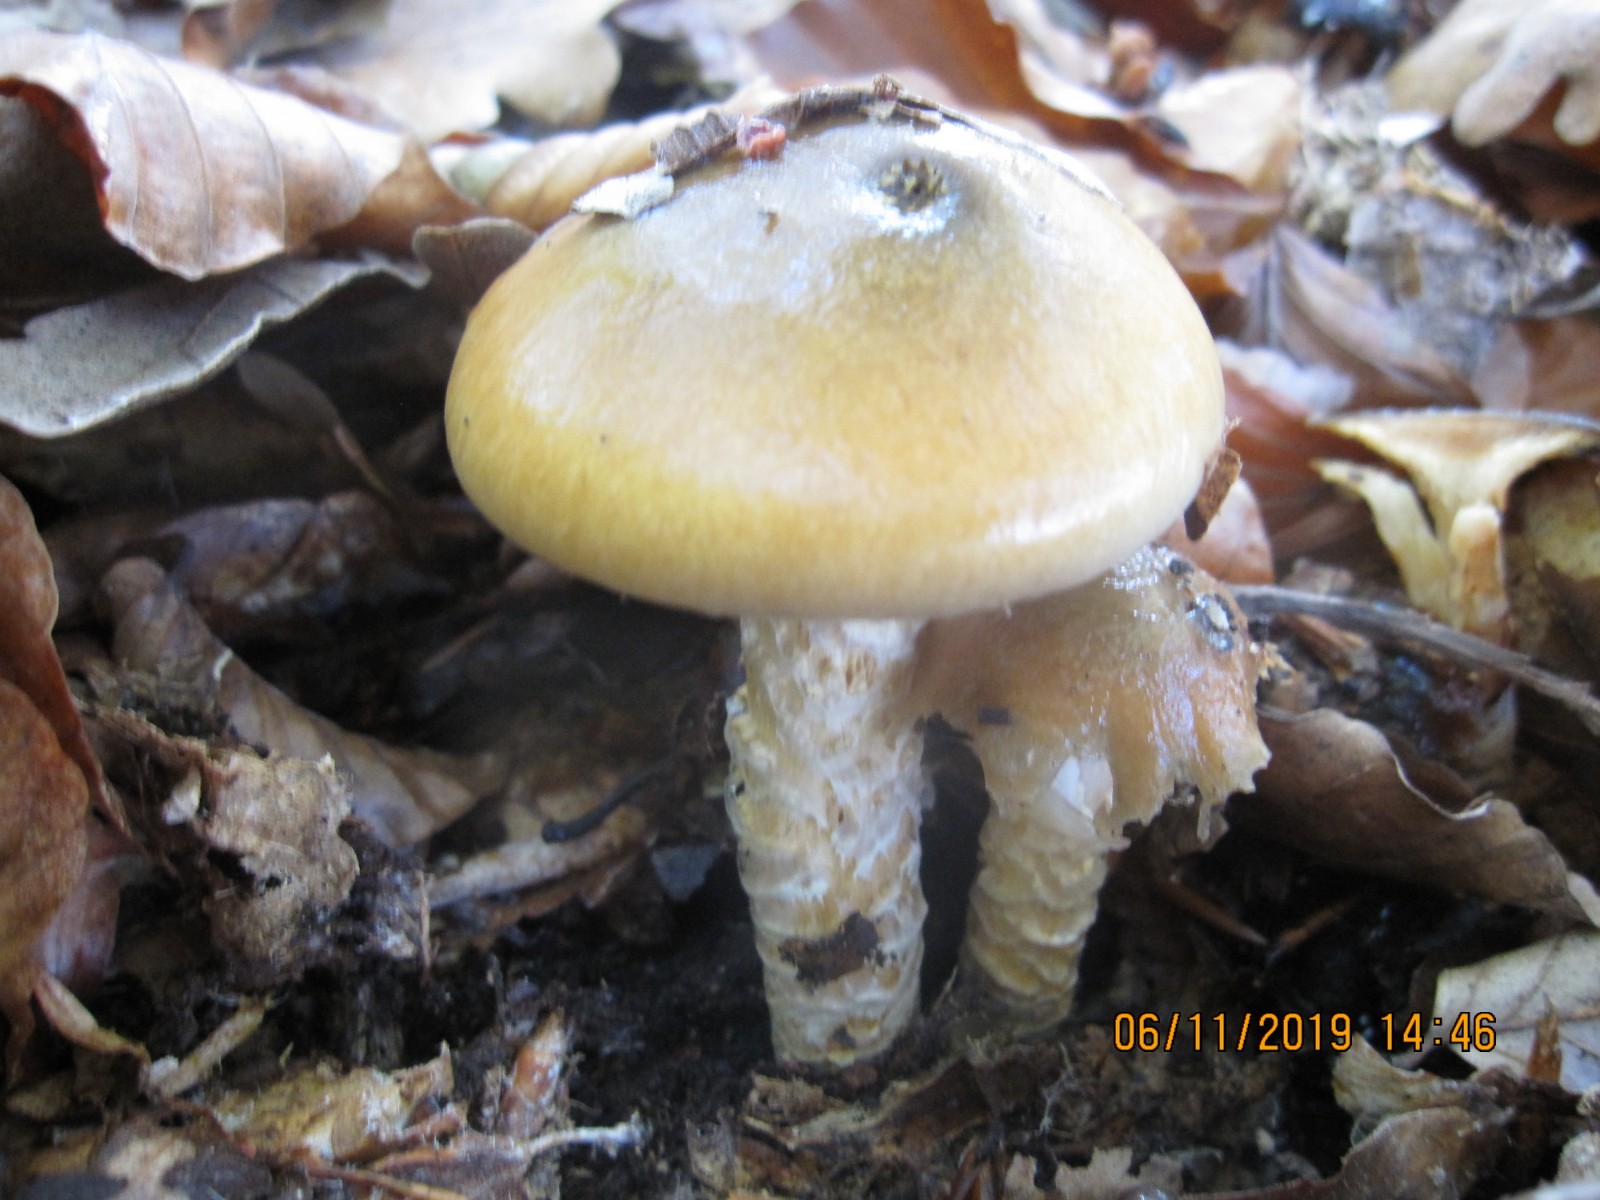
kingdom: Fungi
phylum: Basidiomycota
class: Agaricomycetes
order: Agaricales
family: Cortinariaceae
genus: Cortinarius
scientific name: Cortinarius trivialis
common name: brunslimet slørhat
